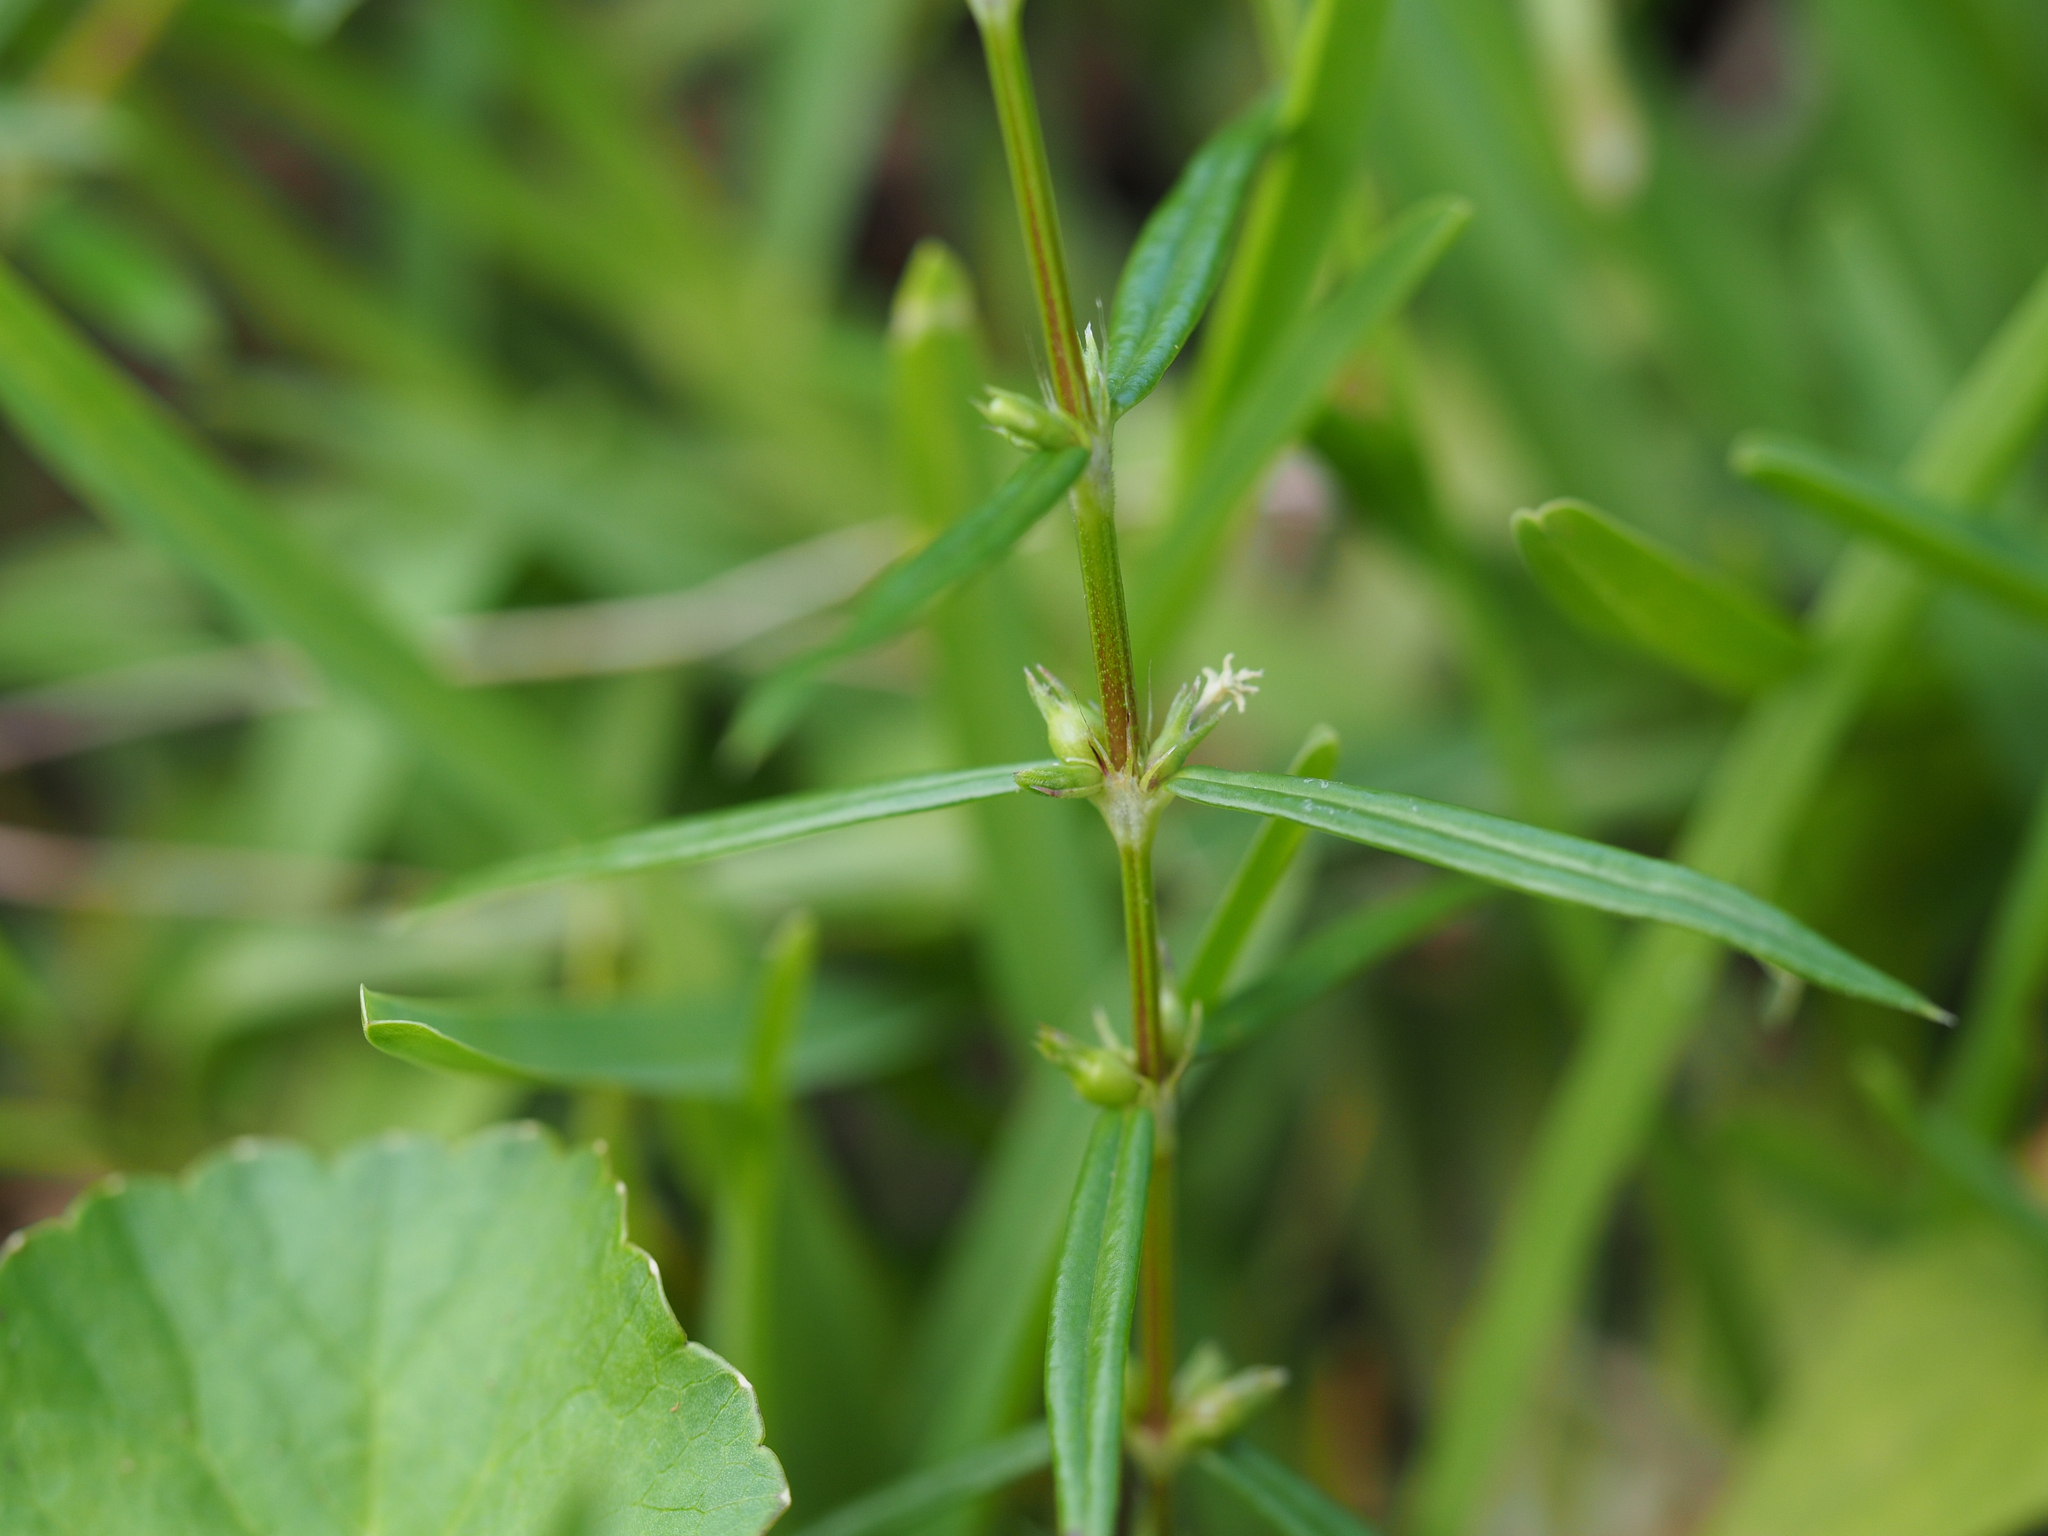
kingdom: Plantae
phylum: Tracheophyta
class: Magnoliopsida
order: Gentianales
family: Rubiaceae
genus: Scleromitrion
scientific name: Scleromitrion tenelliflorum
